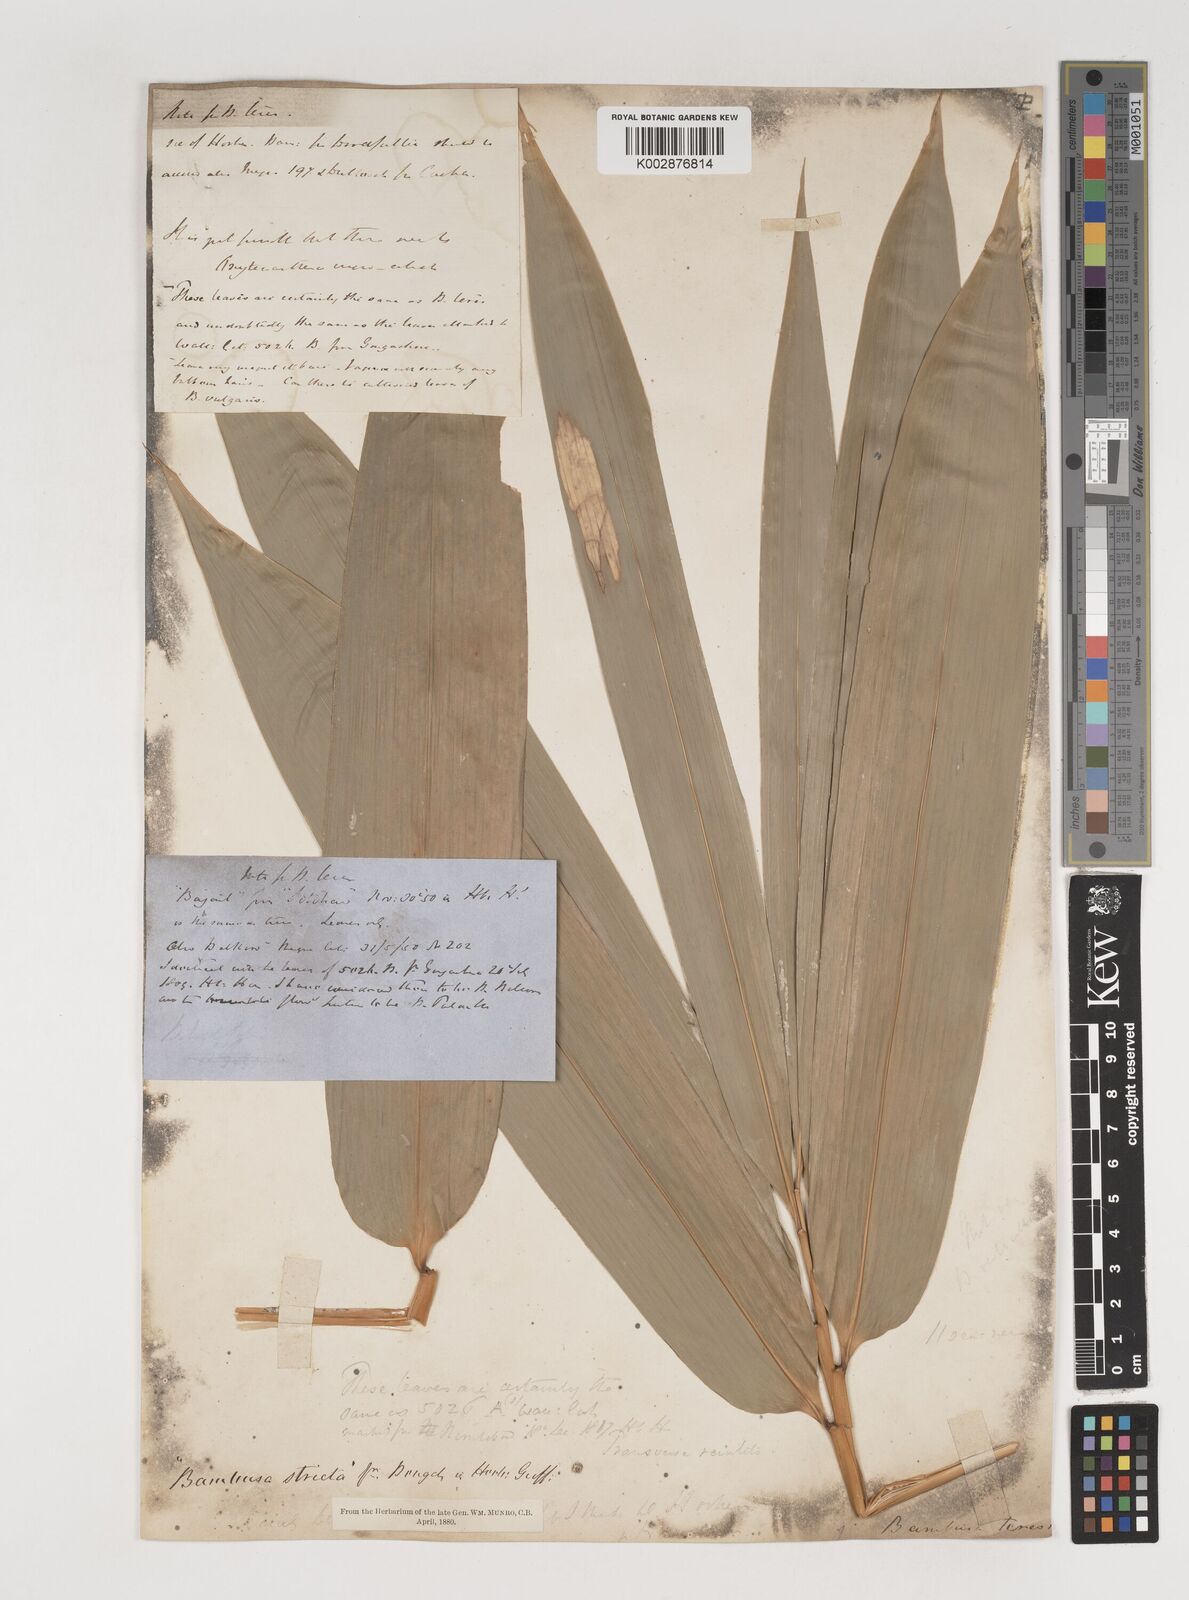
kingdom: Plantae
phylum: Tracheophyta
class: Liliopsida
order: Poales
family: Poaceae
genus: Bambusa
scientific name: Bambusa teres
